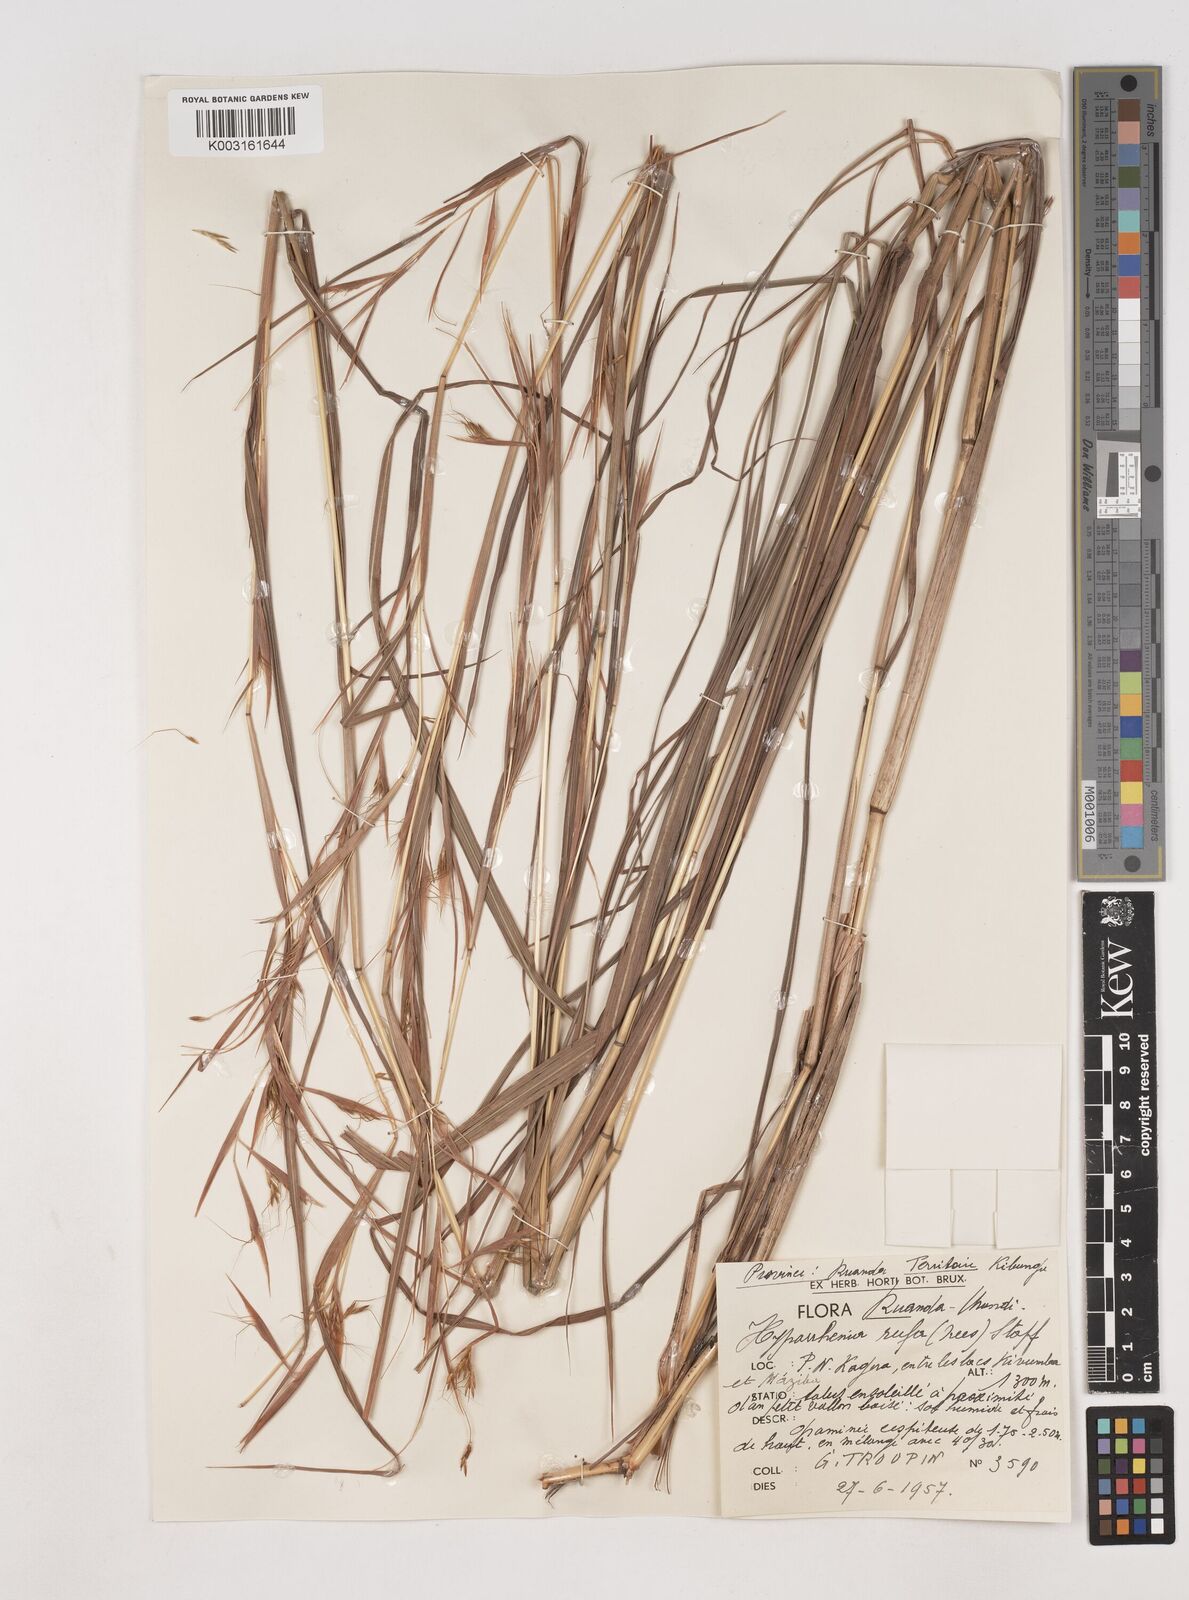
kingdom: Plantae
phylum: Tracheophyta
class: Liliopsida
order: Poales
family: Poaceae
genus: Hyparrhenia
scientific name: Hyparrhenia rufa
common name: Jaraguagrass
